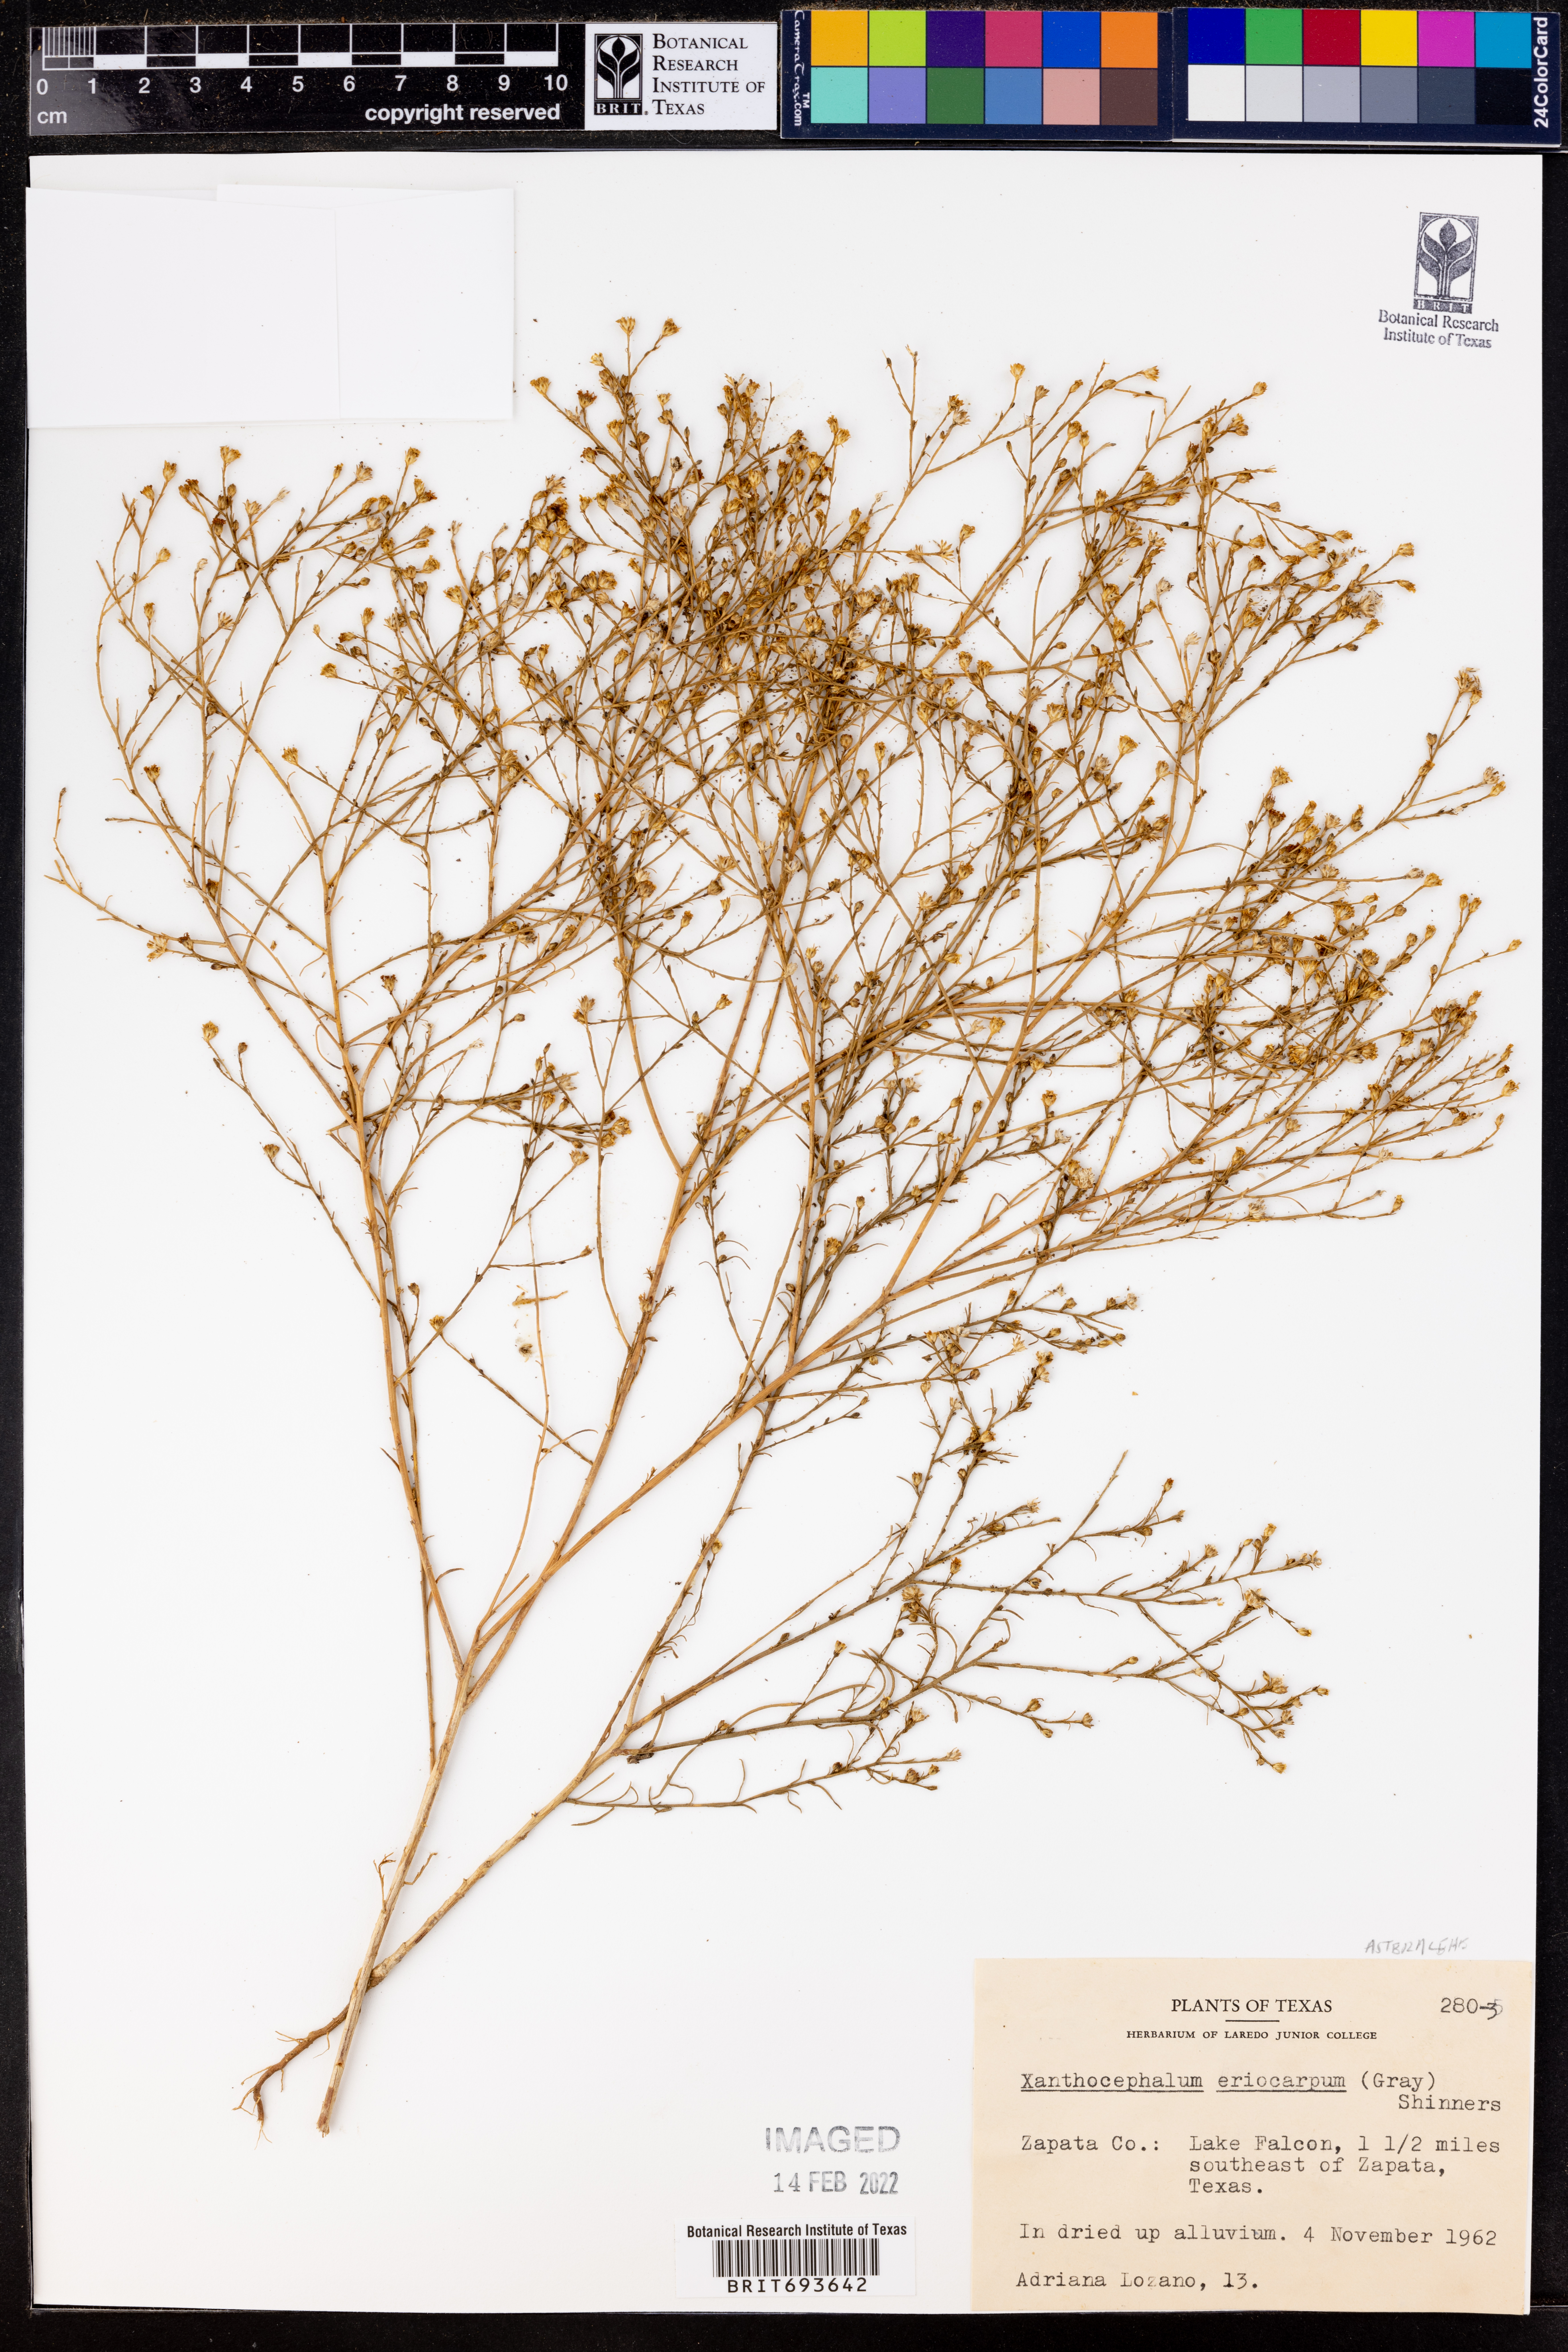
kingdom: Plantae
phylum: Tracheophyta
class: Magnoliopsida
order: Asterales
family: Asteraceae
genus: Xanthocephalum
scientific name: Xanthocephalum
